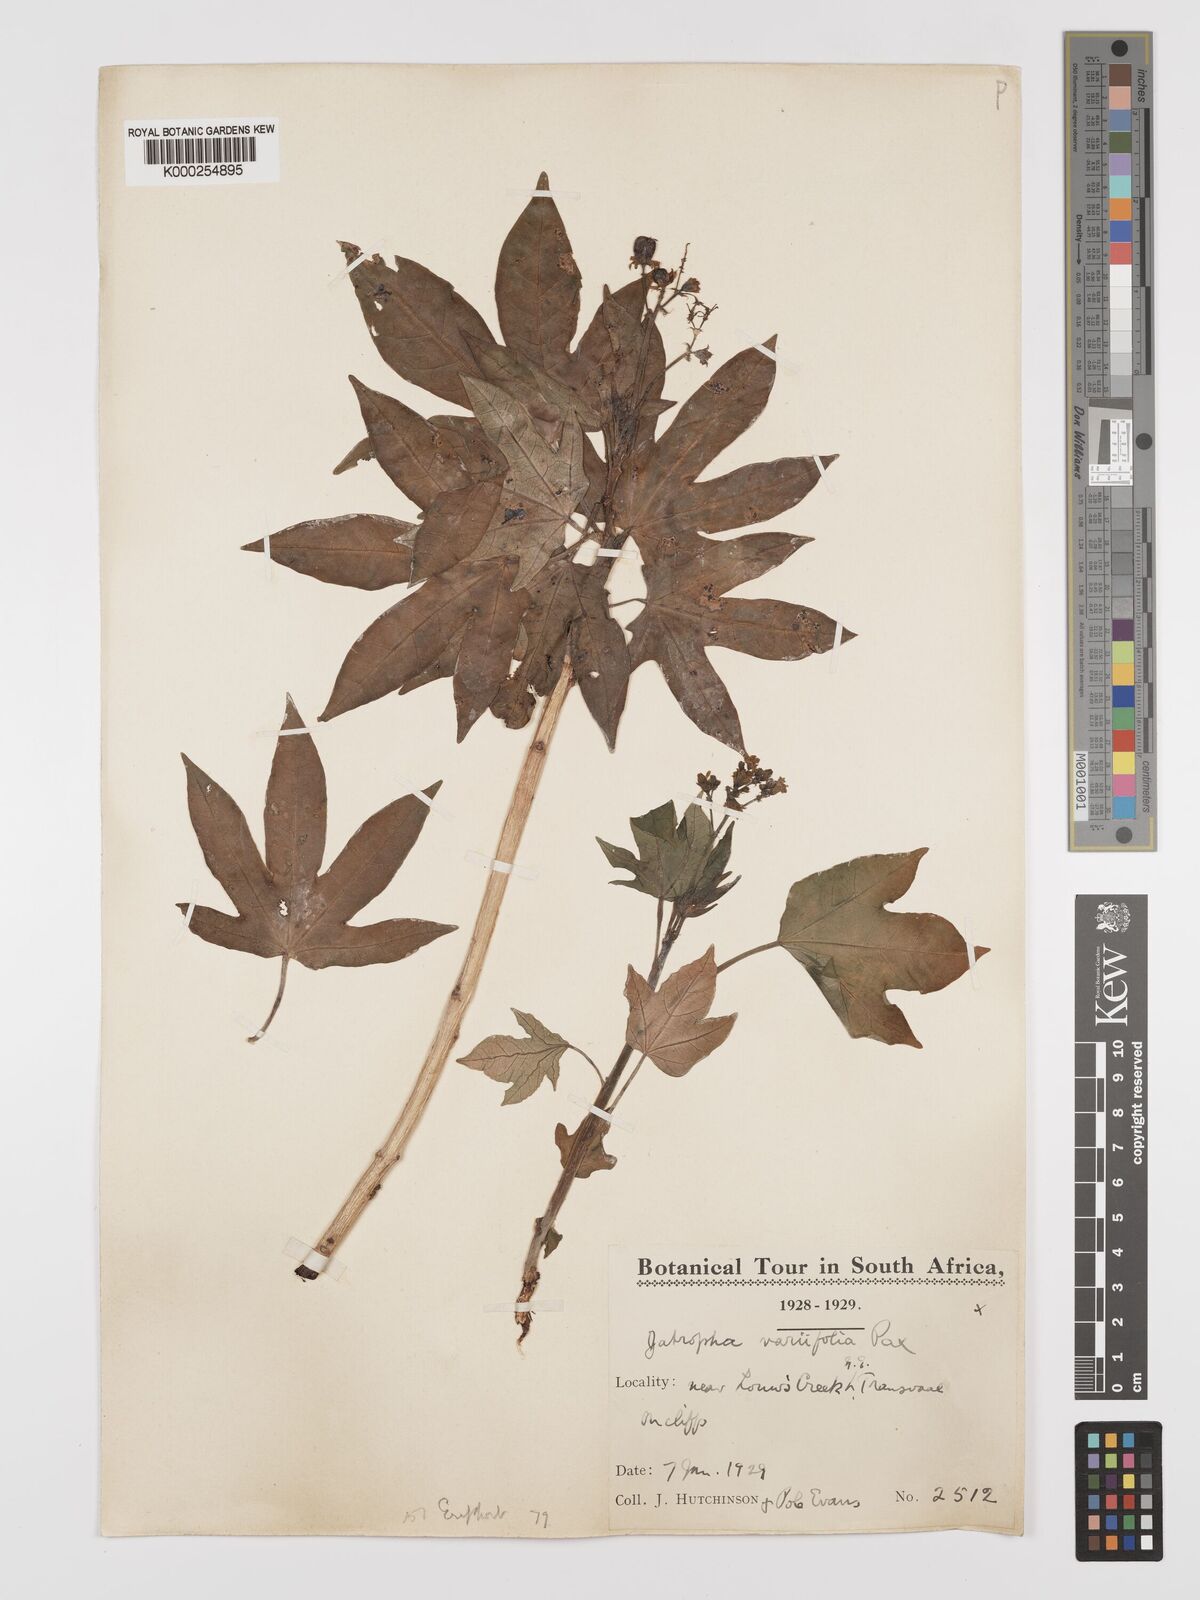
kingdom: Plantae
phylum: Tracheophyta
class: Magnoliopsida
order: Malpighiales
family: Euphorbiaceae
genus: Jatropha
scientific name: Jatropha variifolia
